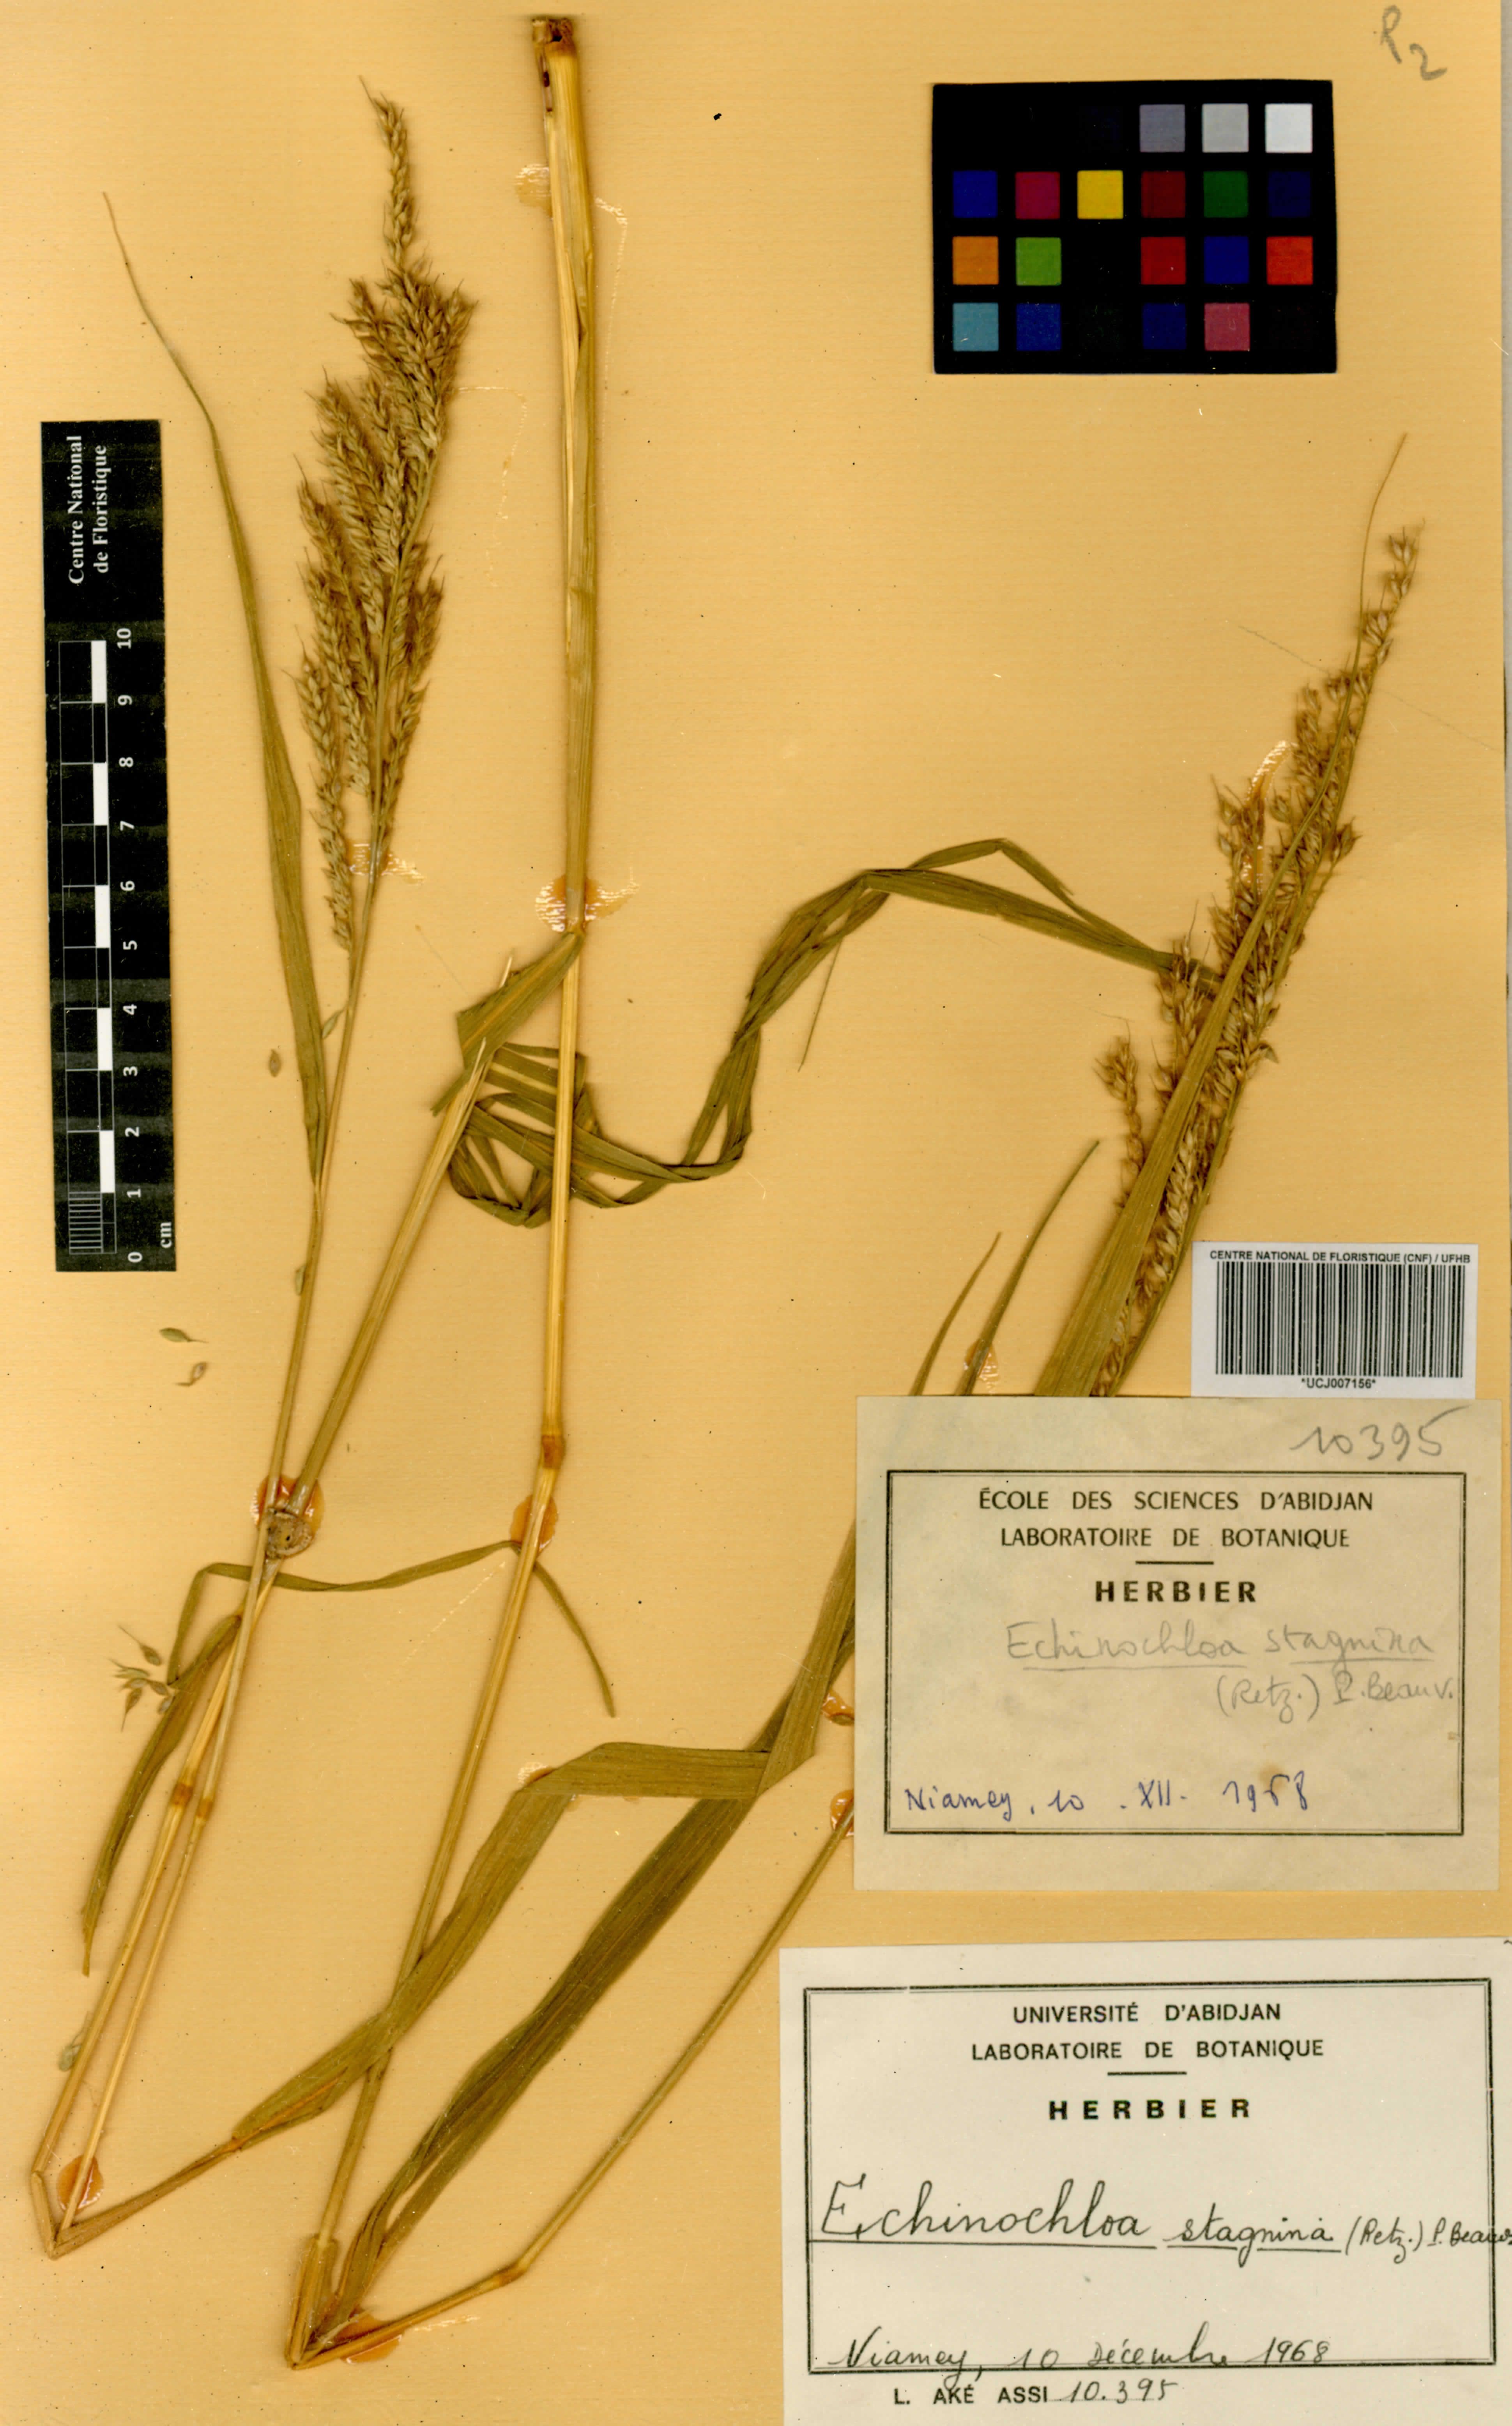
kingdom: Plantae
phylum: Tracheophyta
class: Liliopsida
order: Poales
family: Poaceae
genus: Echinochloa
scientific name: Echinochloa stagnina
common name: Burgu grass
